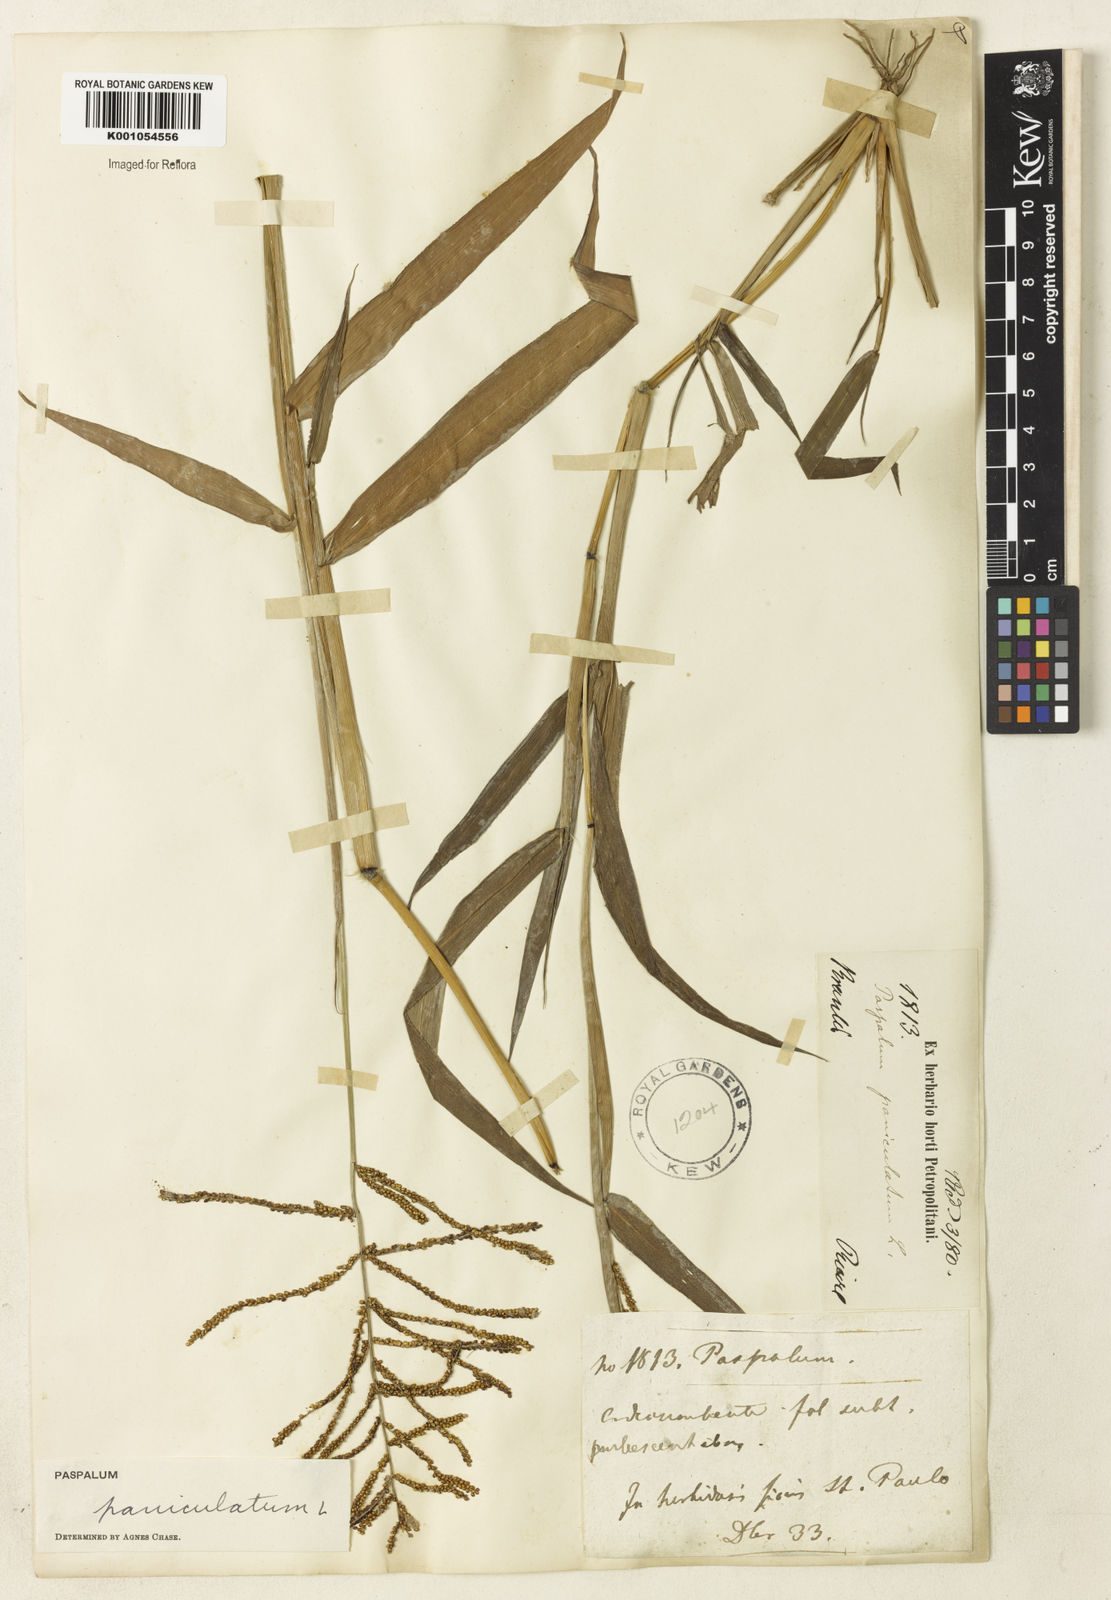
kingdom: Plantae
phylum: Tracheophyta
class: Liliopsida
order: Poales
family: Poaceae
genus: Paspalum
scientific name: Paspalum paniculatum
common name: Arrocillo
